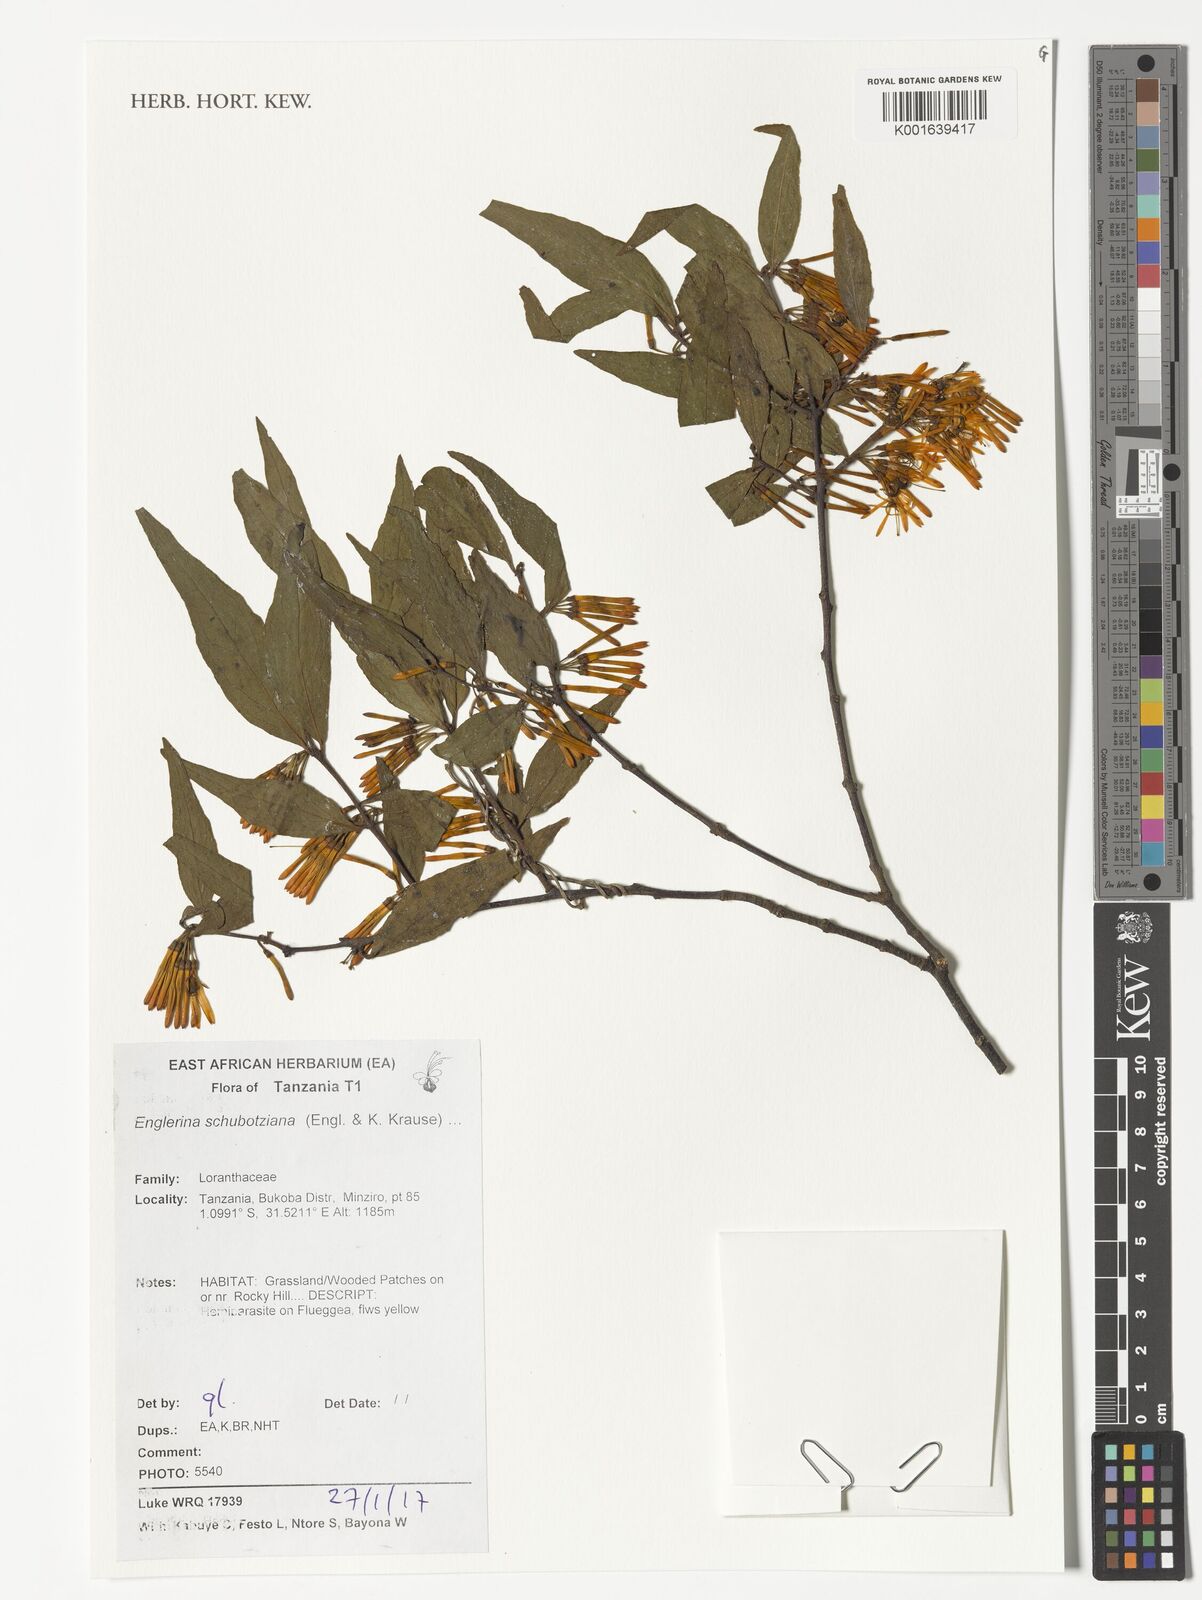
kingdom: Plantae
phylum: Tracheophyta
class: Magnoliopsida
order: Santalales
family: Loranthaceae
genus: Englerina
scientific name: Englerina schubotziana
